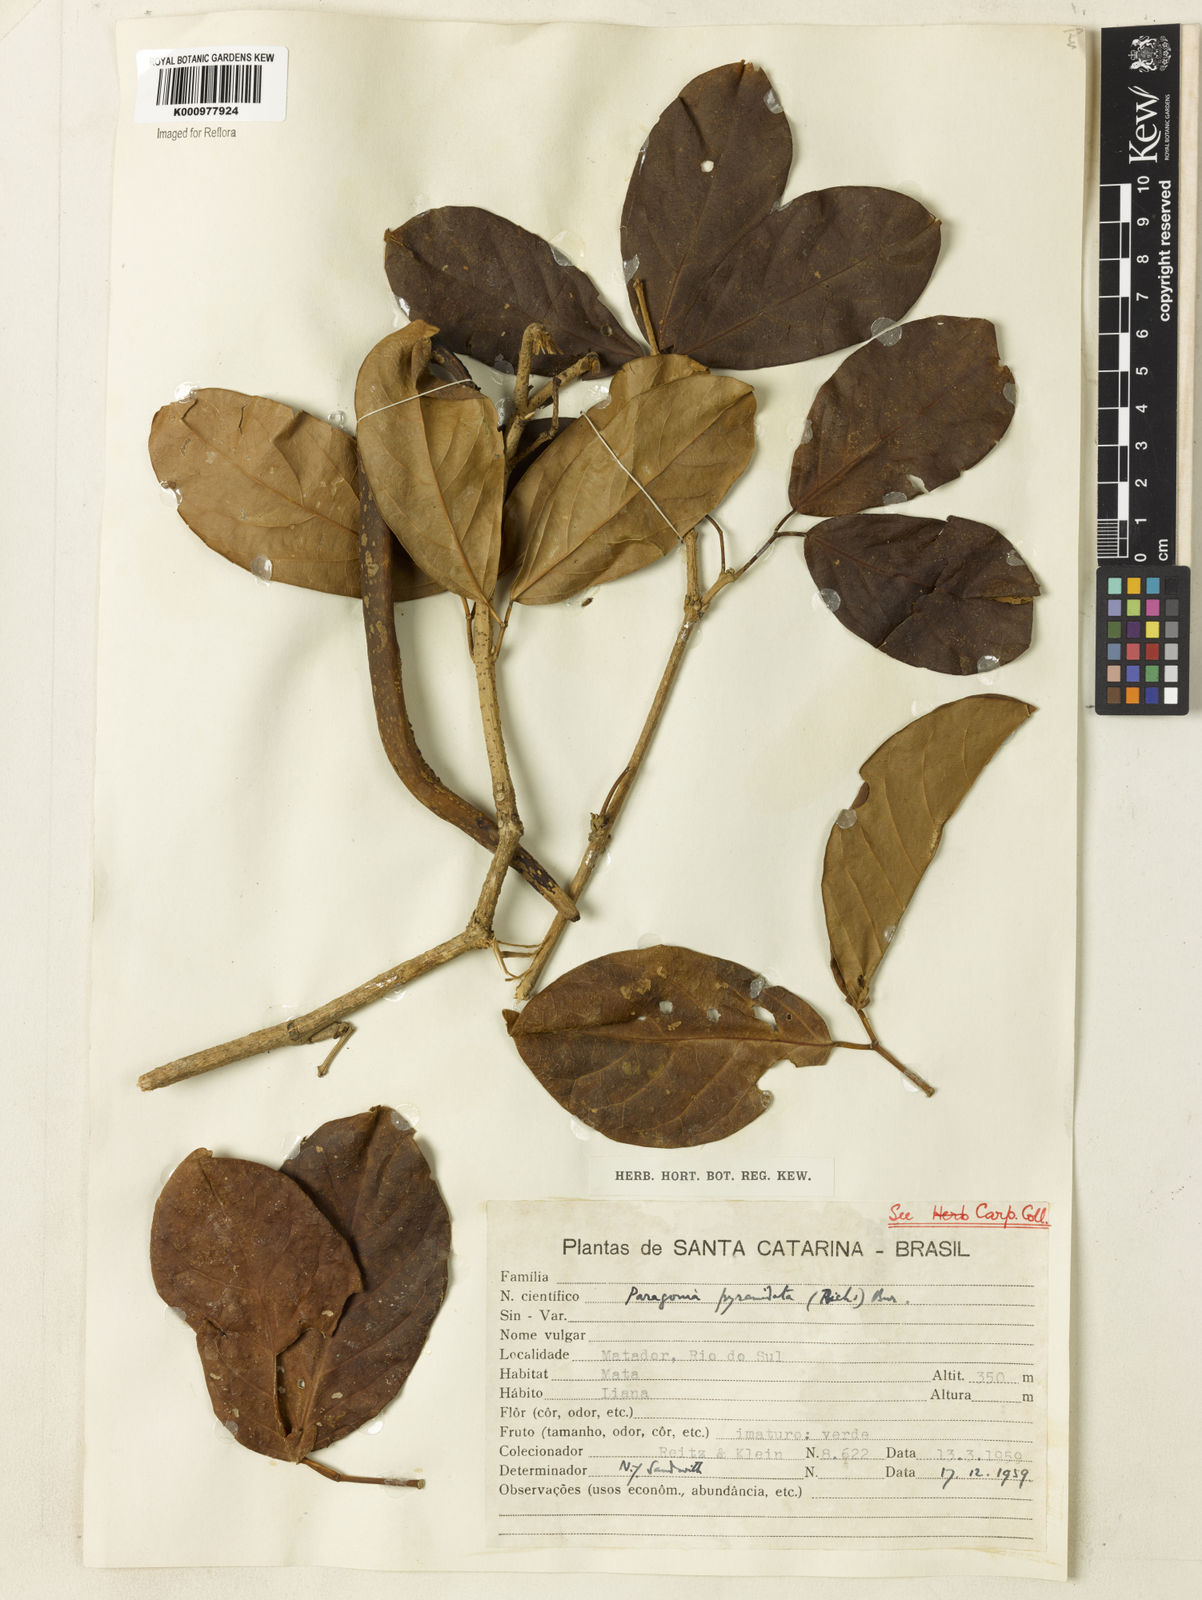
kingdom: Plantae
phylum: Tracheophyta
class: Magnoliopsida
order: Lamiales
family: Bignoniaceae
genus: Tanaecium
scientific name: Tanaecium pyramidatum
